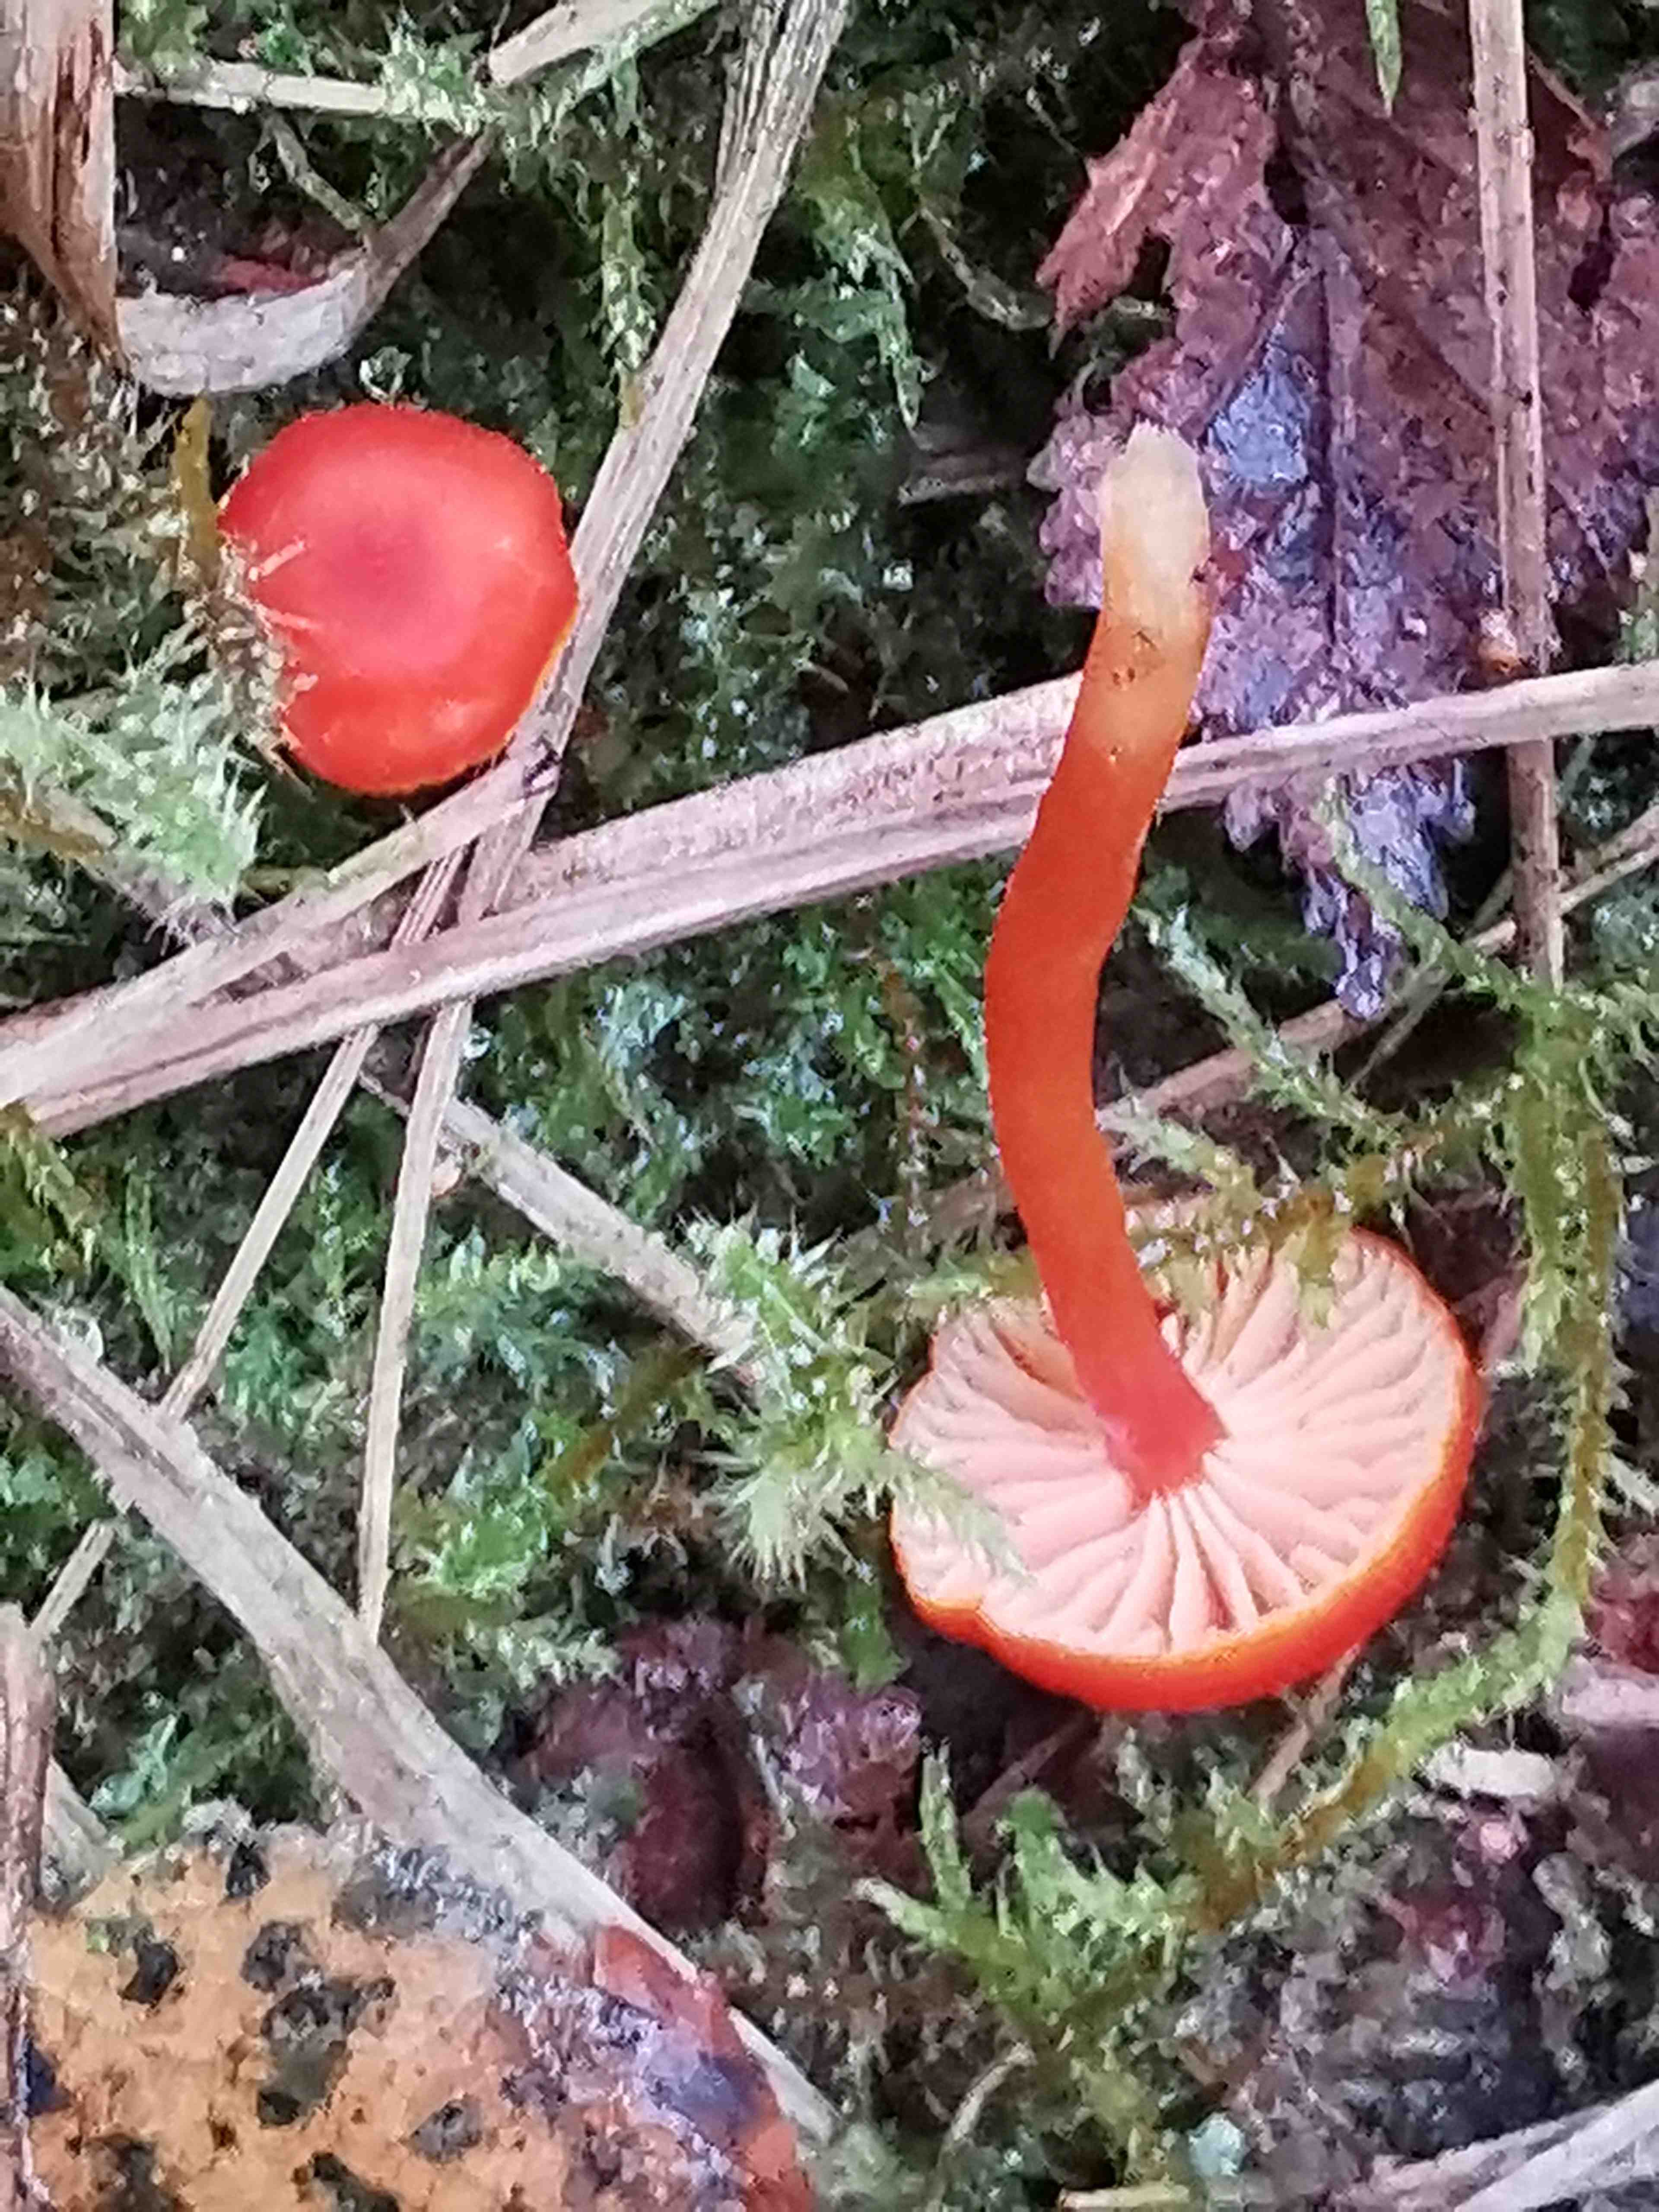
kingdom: Fungi
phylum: Basidiomycota
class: Agaricomycetes
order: Agaricales
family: Hygrophoraceae
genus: Hygrocybe
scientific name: Hygrocybe miniata
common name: mønje-vokshat
